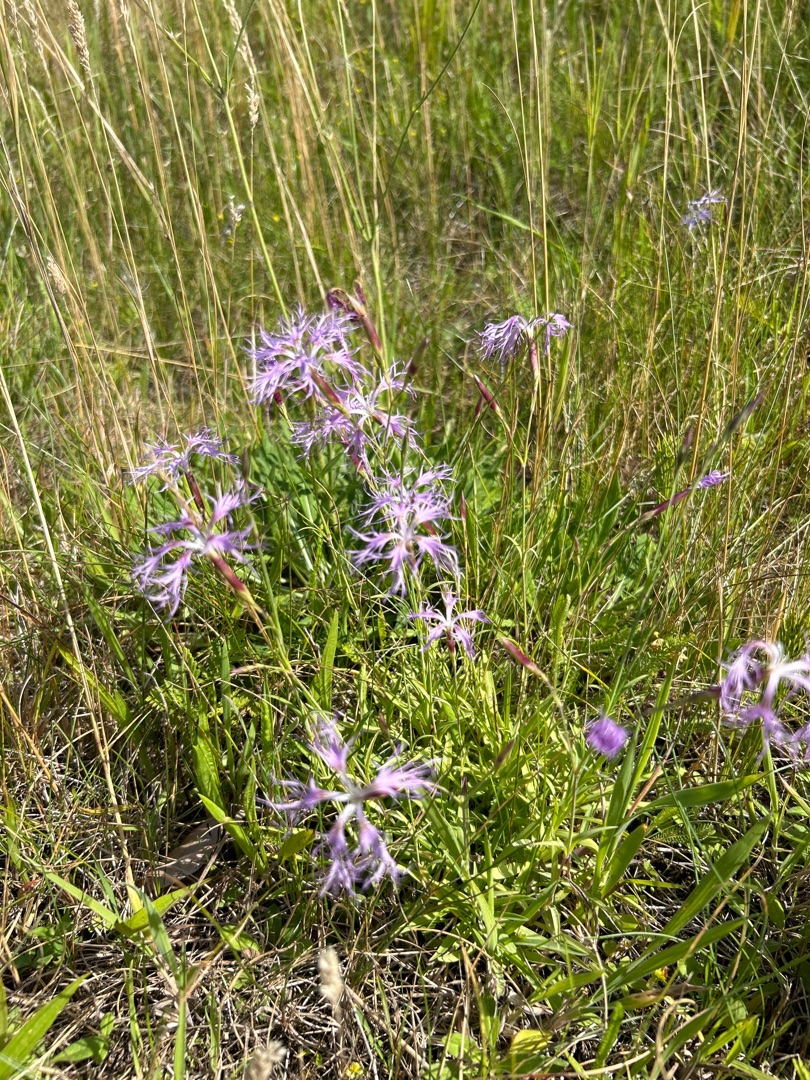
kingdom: Plantae
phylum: Tracheophyta
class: Magnoliopsida
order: Caryophyllales
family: Caryophyllaceae
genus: Dianthus
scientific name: Dianthus superbus
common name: Strand-nellike
